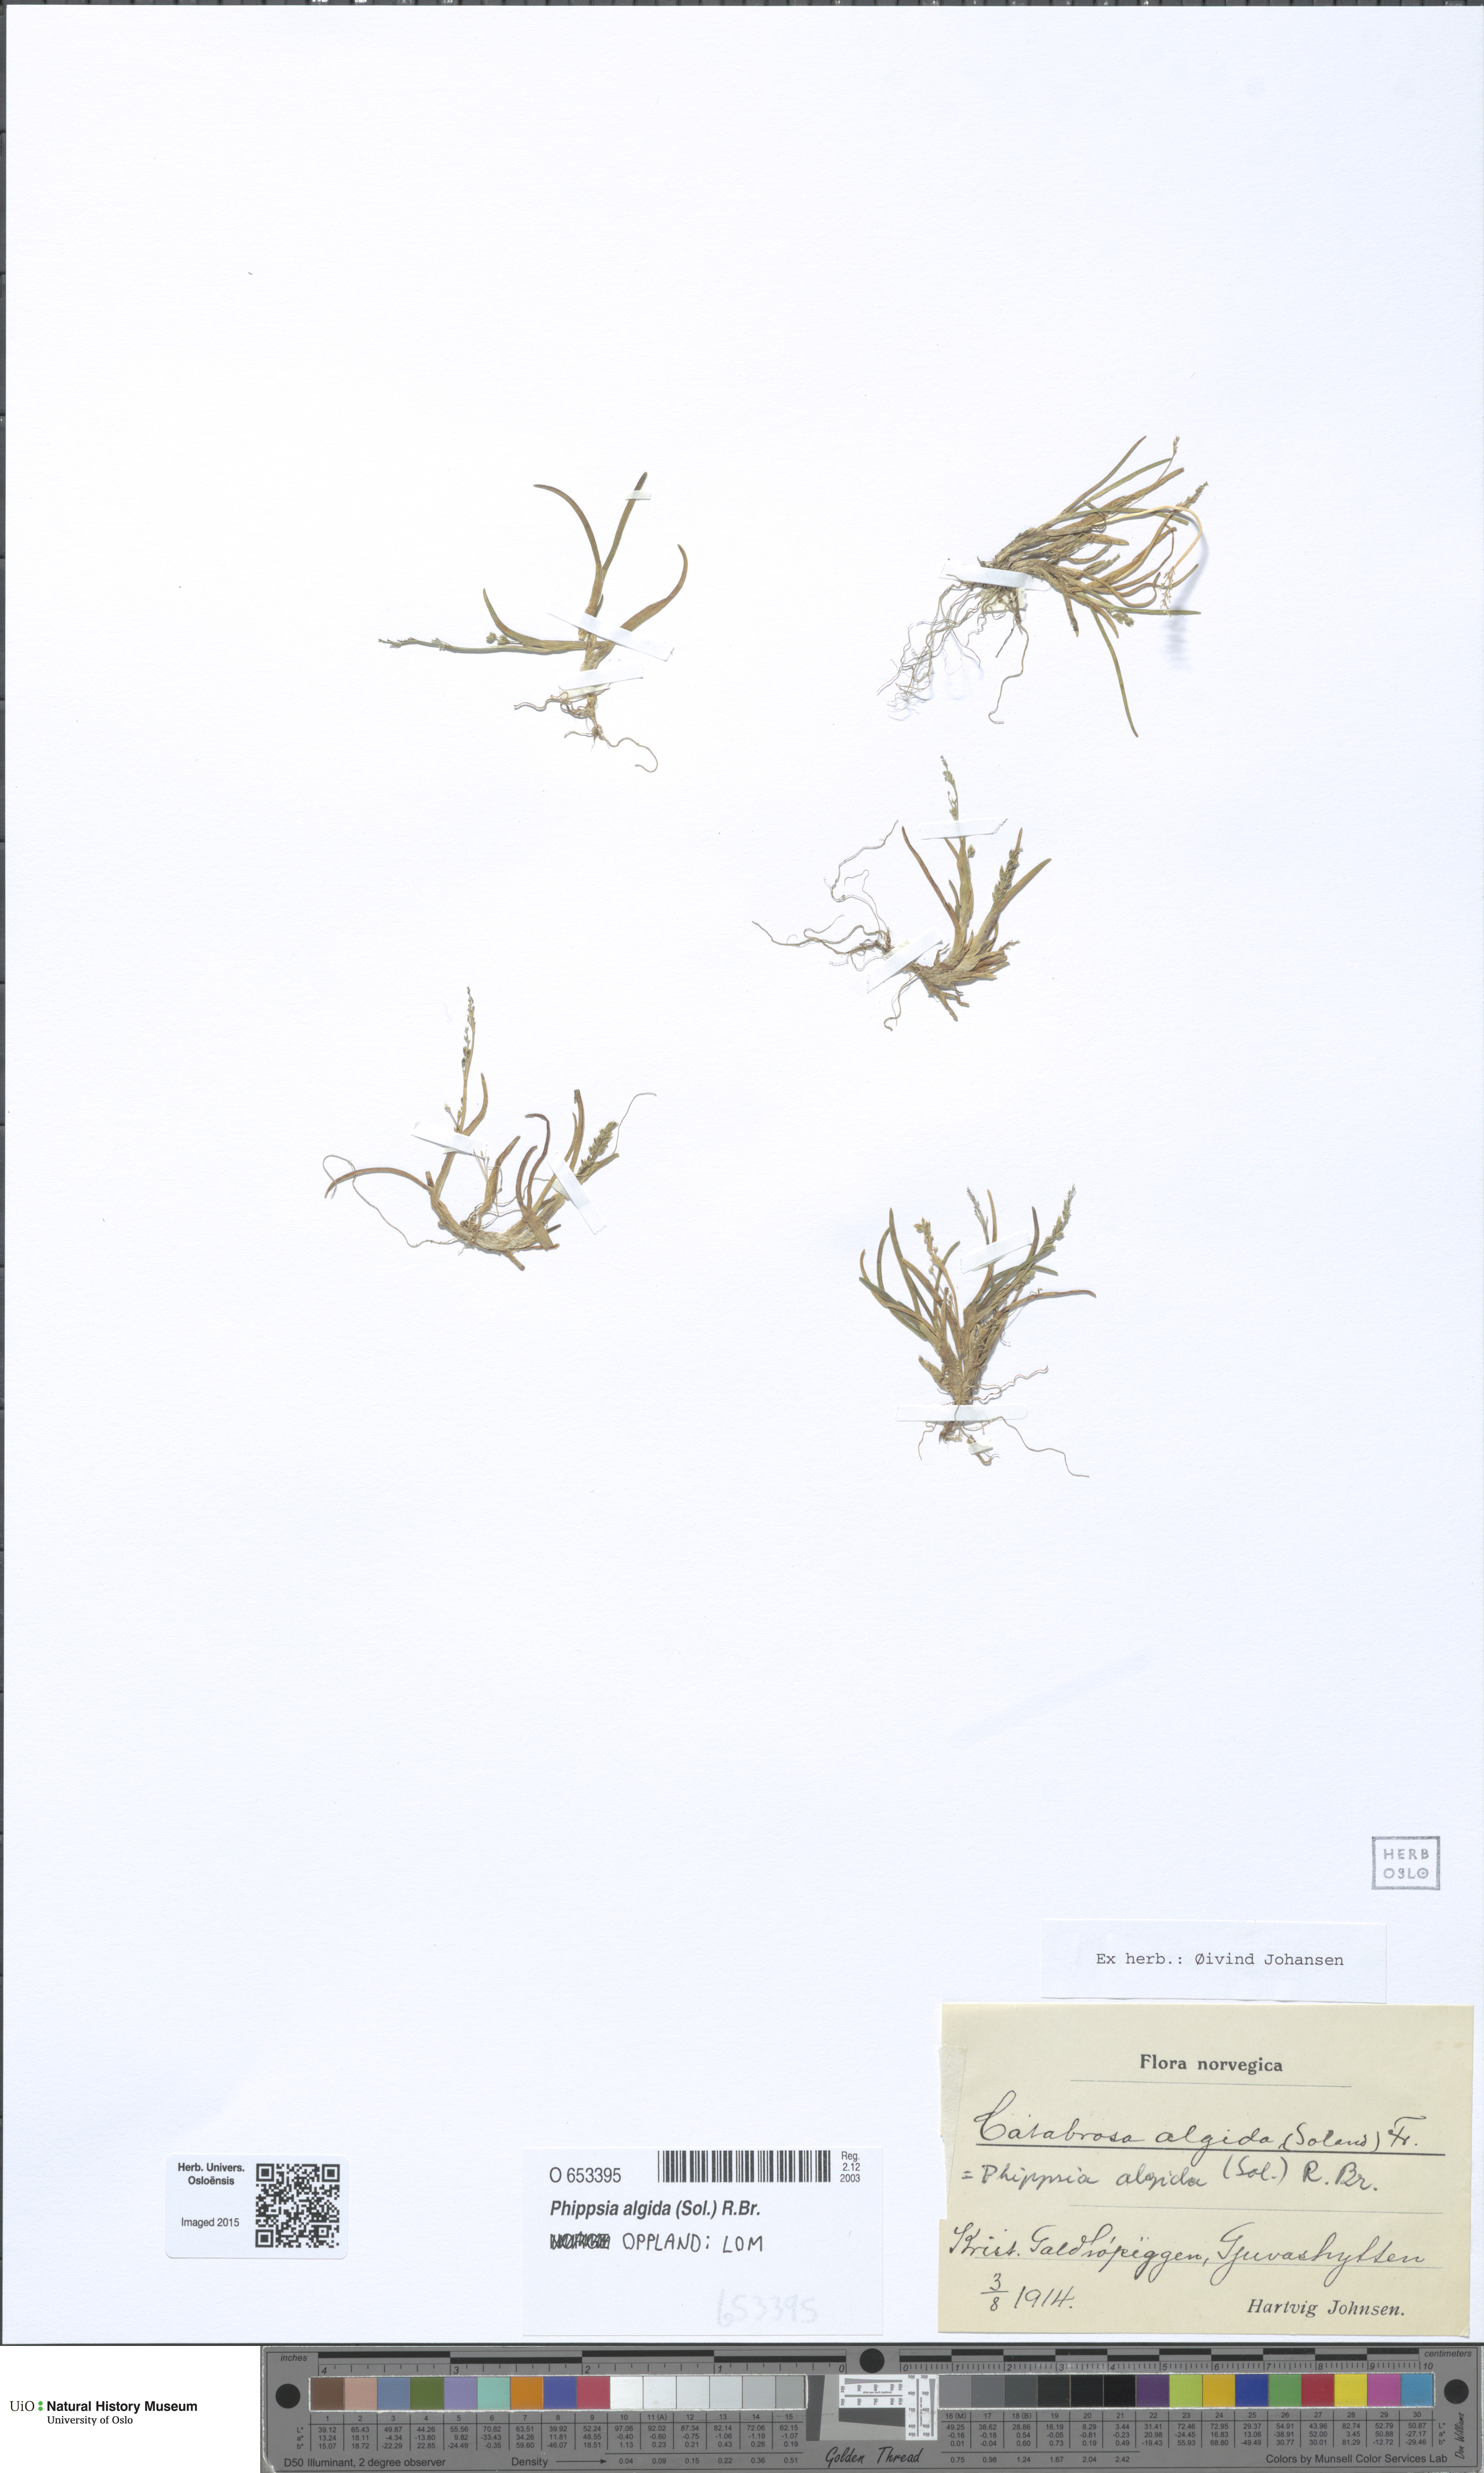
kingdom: Plantae
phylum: Tracheophyta
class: Liliopsida
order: Poales
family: Poaceae
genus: Phippsia
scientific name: Phippsia algida
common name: Ice grass
